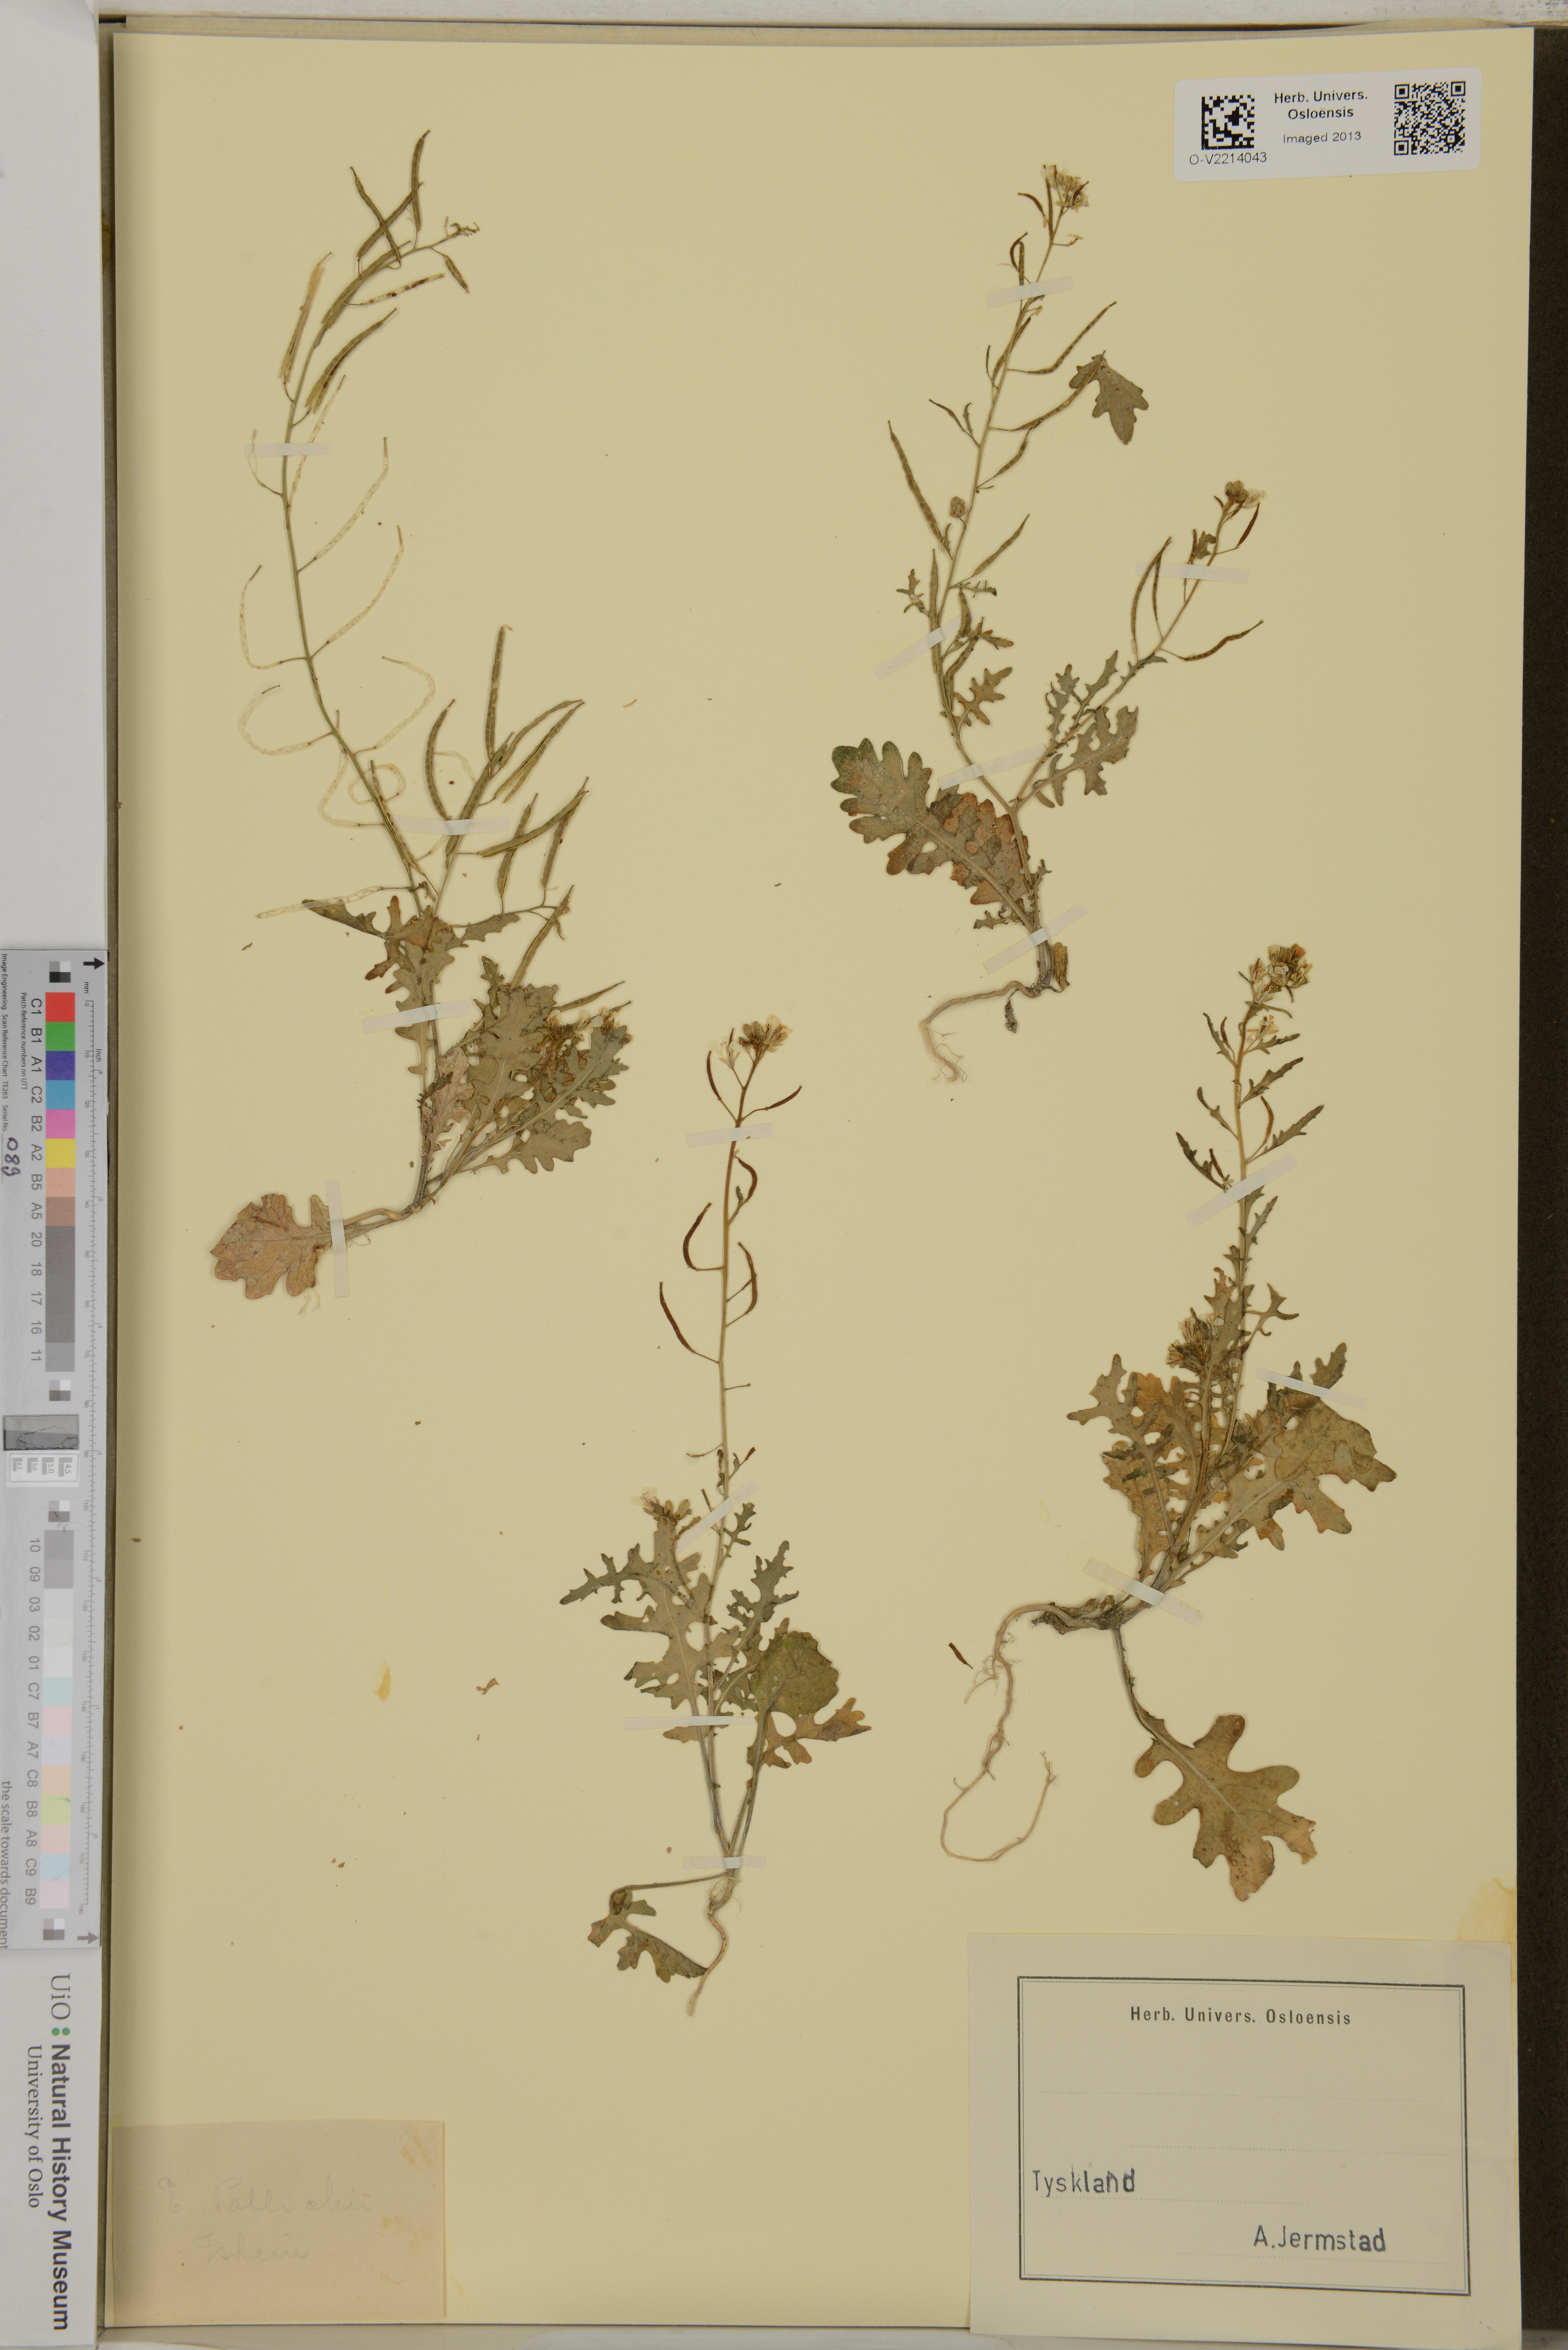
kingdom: Plantae
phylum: Tracheophyta
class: Magnoliopsida
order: Brassicales
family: Brassicaceae
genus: Erucastrum
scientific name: Erucastrum gallicum
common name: Hairy rocket
